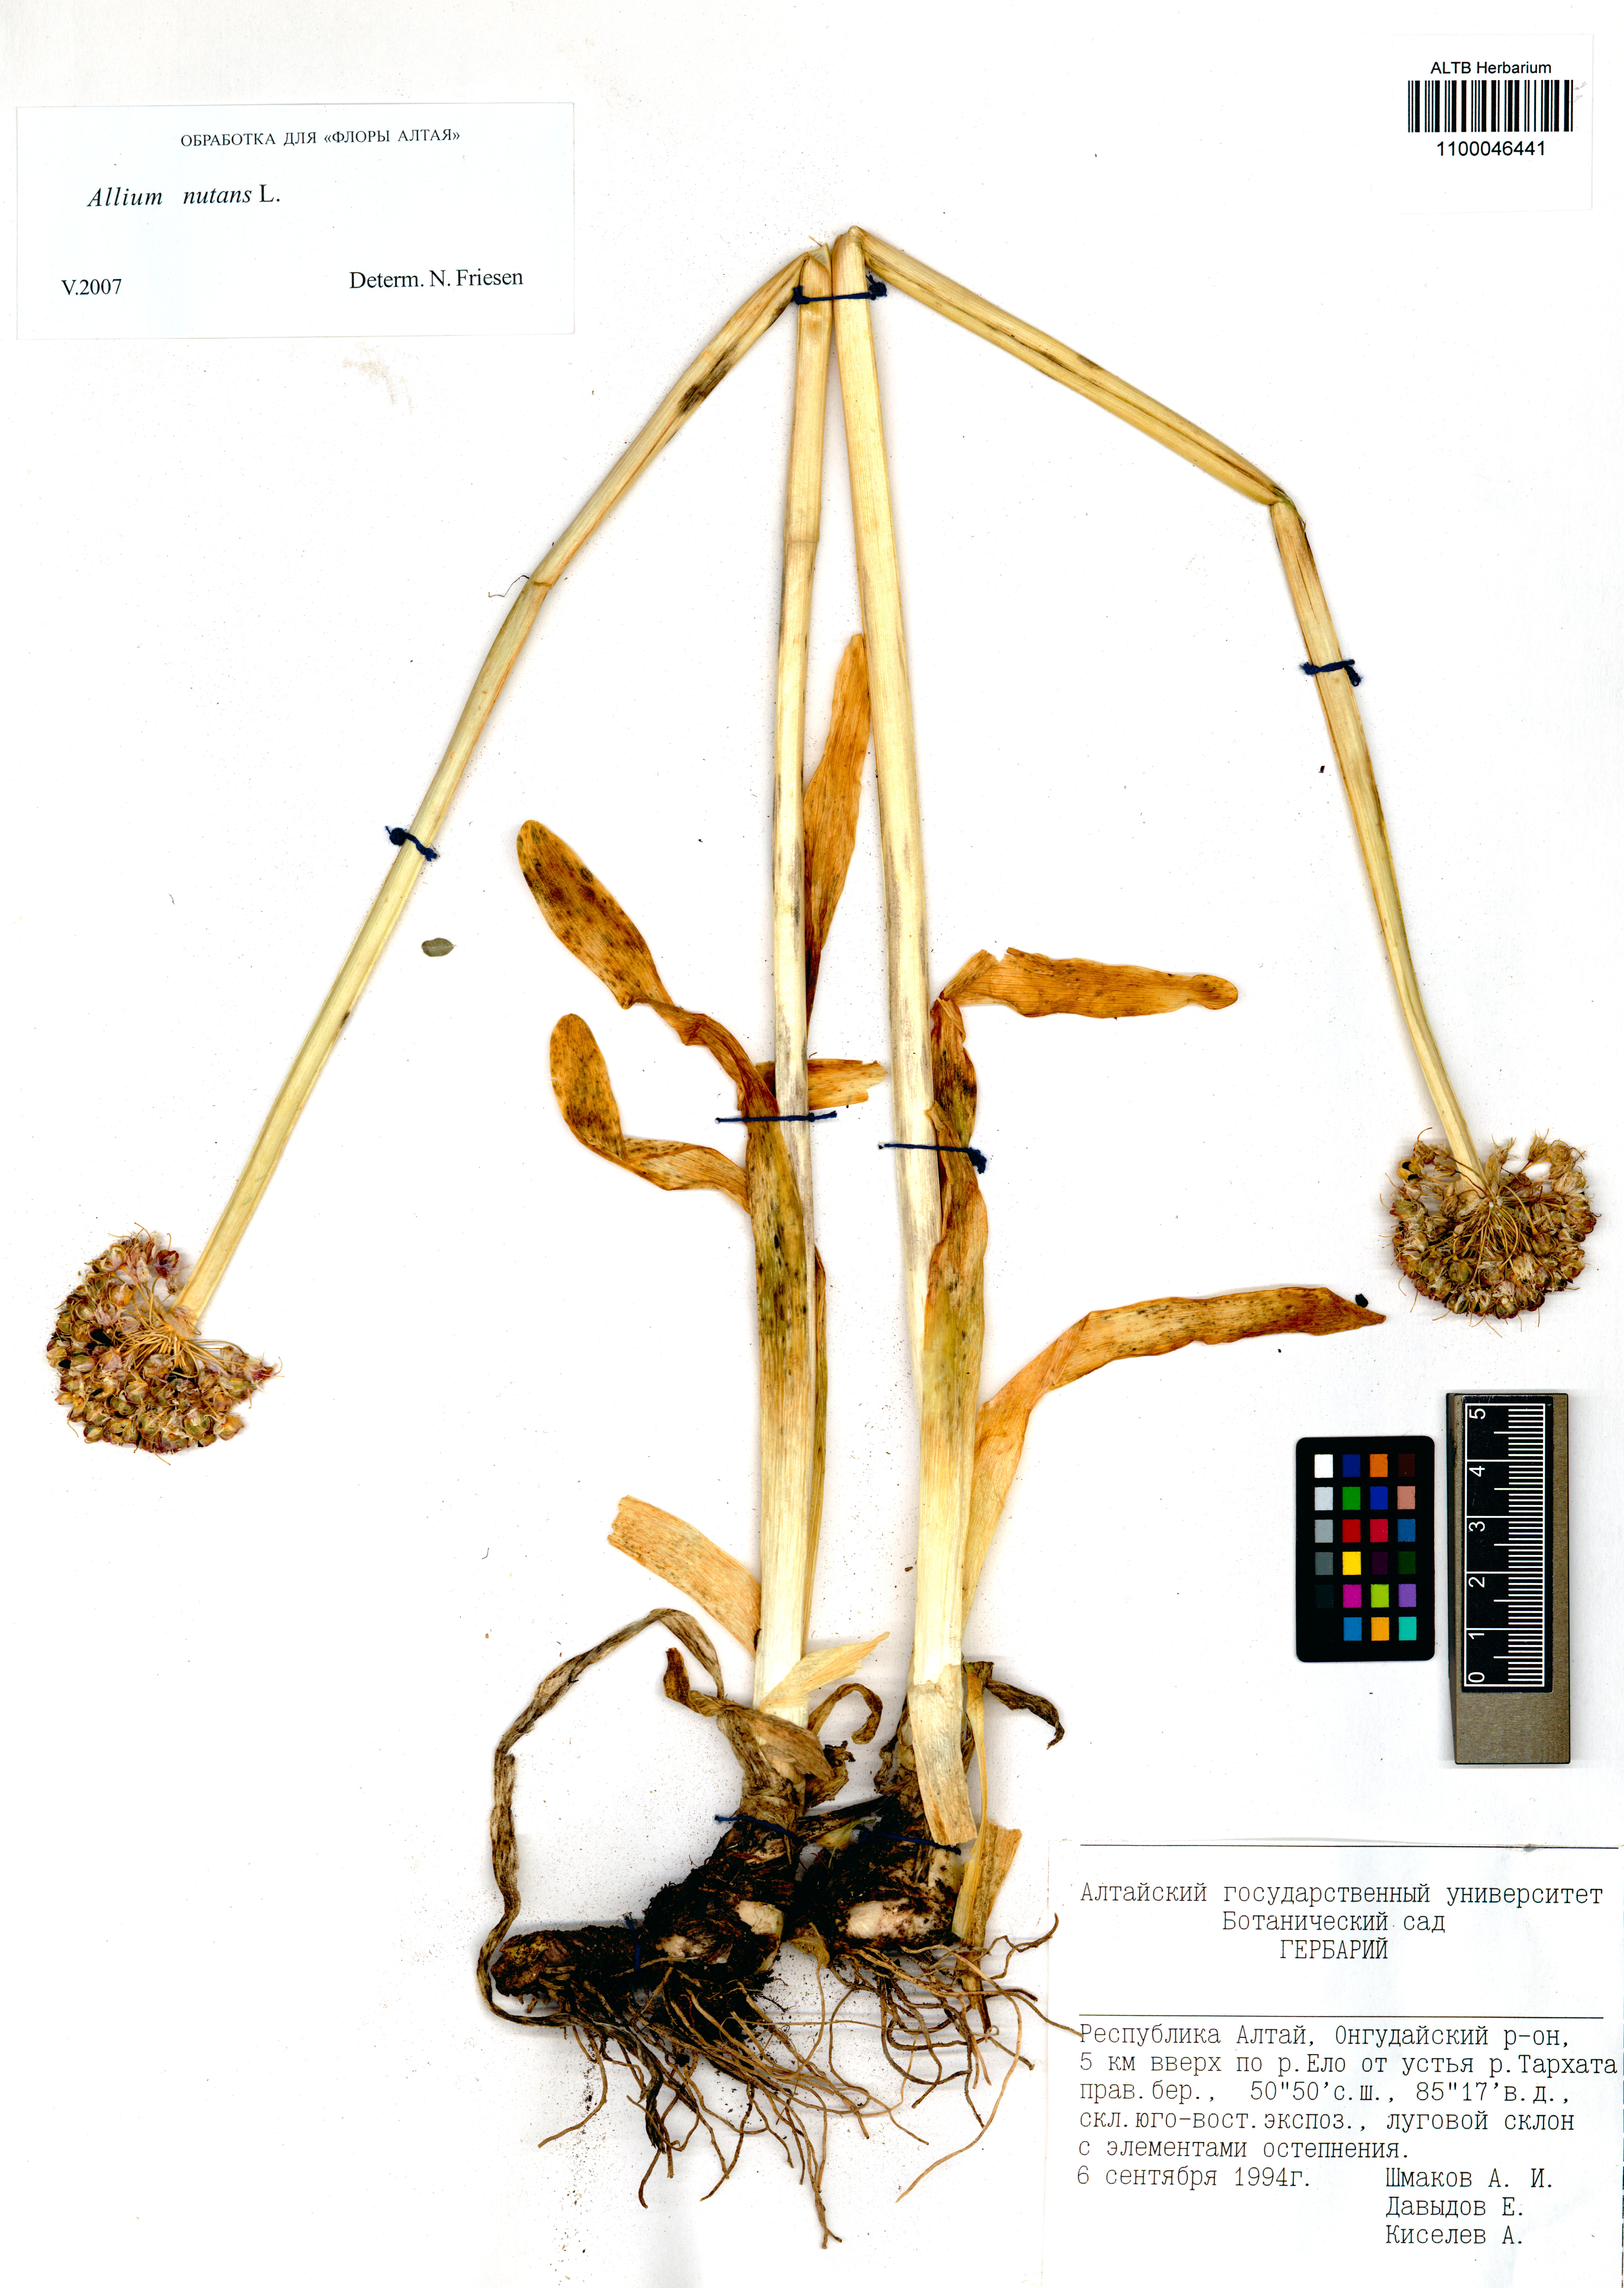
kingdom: Plantae
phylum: Tracheophyta
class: Liliopsida
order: Asparagales
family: Amaryllidaceae
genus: Allium
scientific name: Allium nutans
